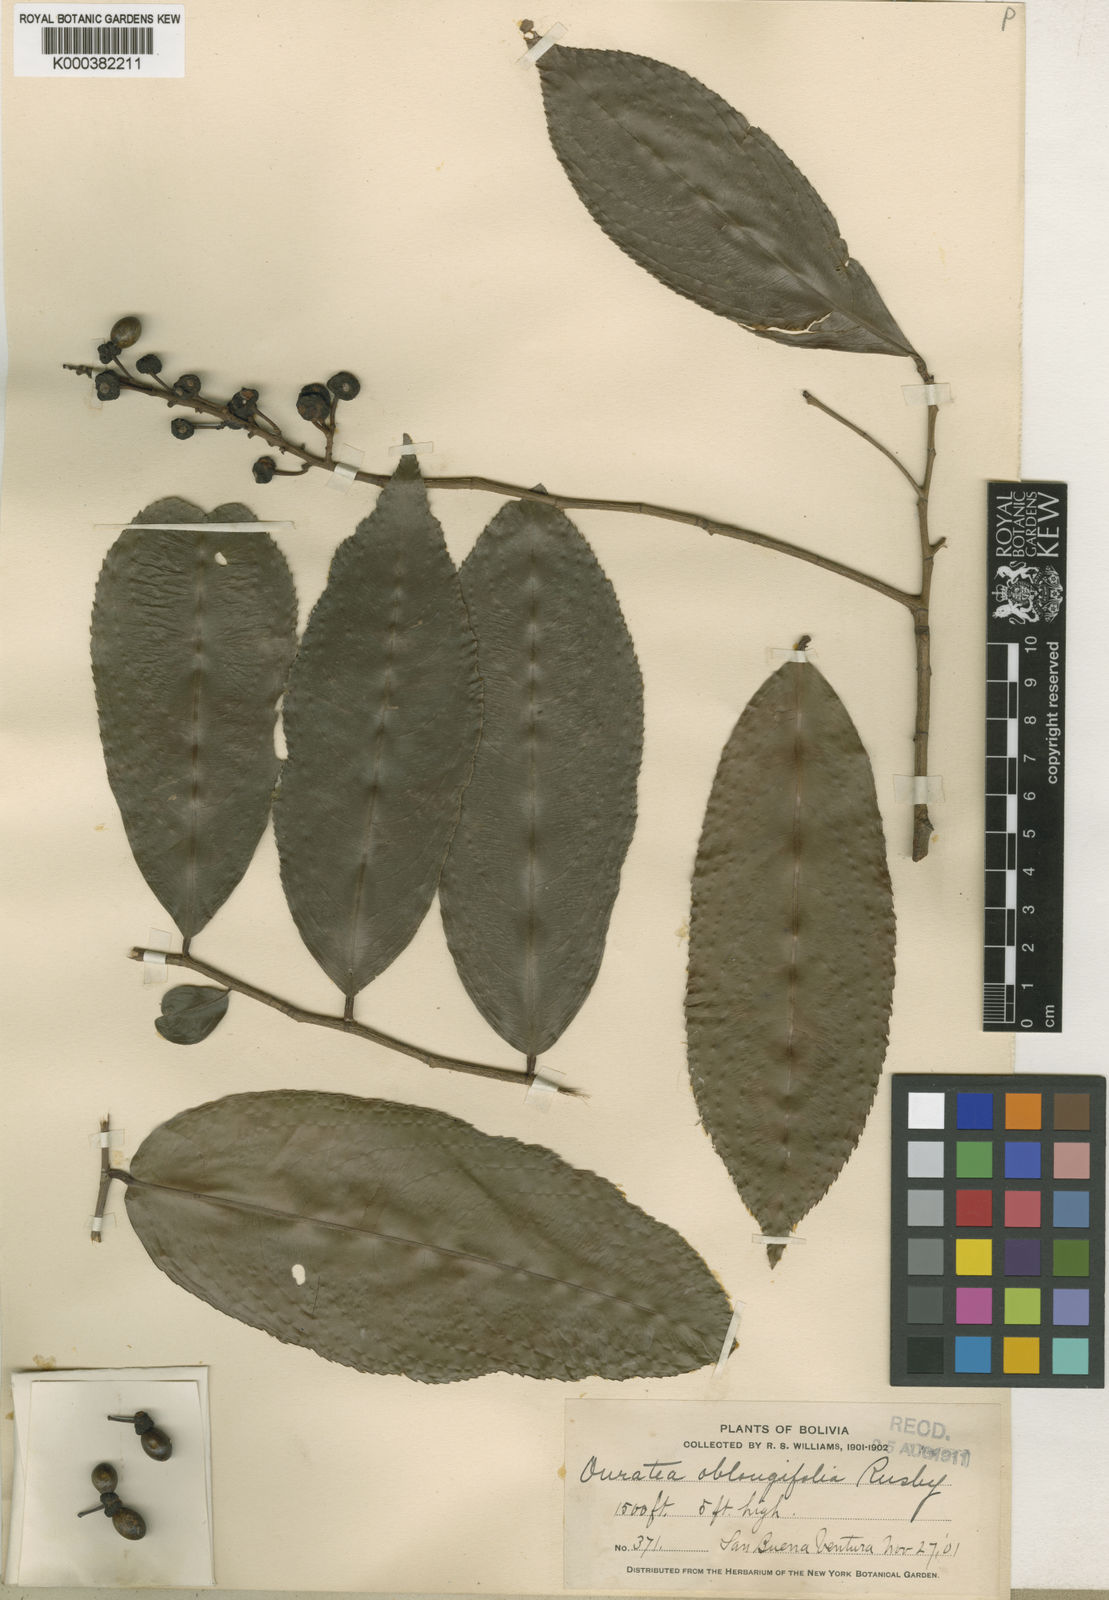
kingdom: Plantae
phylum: Tracheophyta
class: Magnoliopsida
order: Malpighiales
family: Ochnaceae
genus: Ouratea
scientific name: Ouratea oblongifolia
